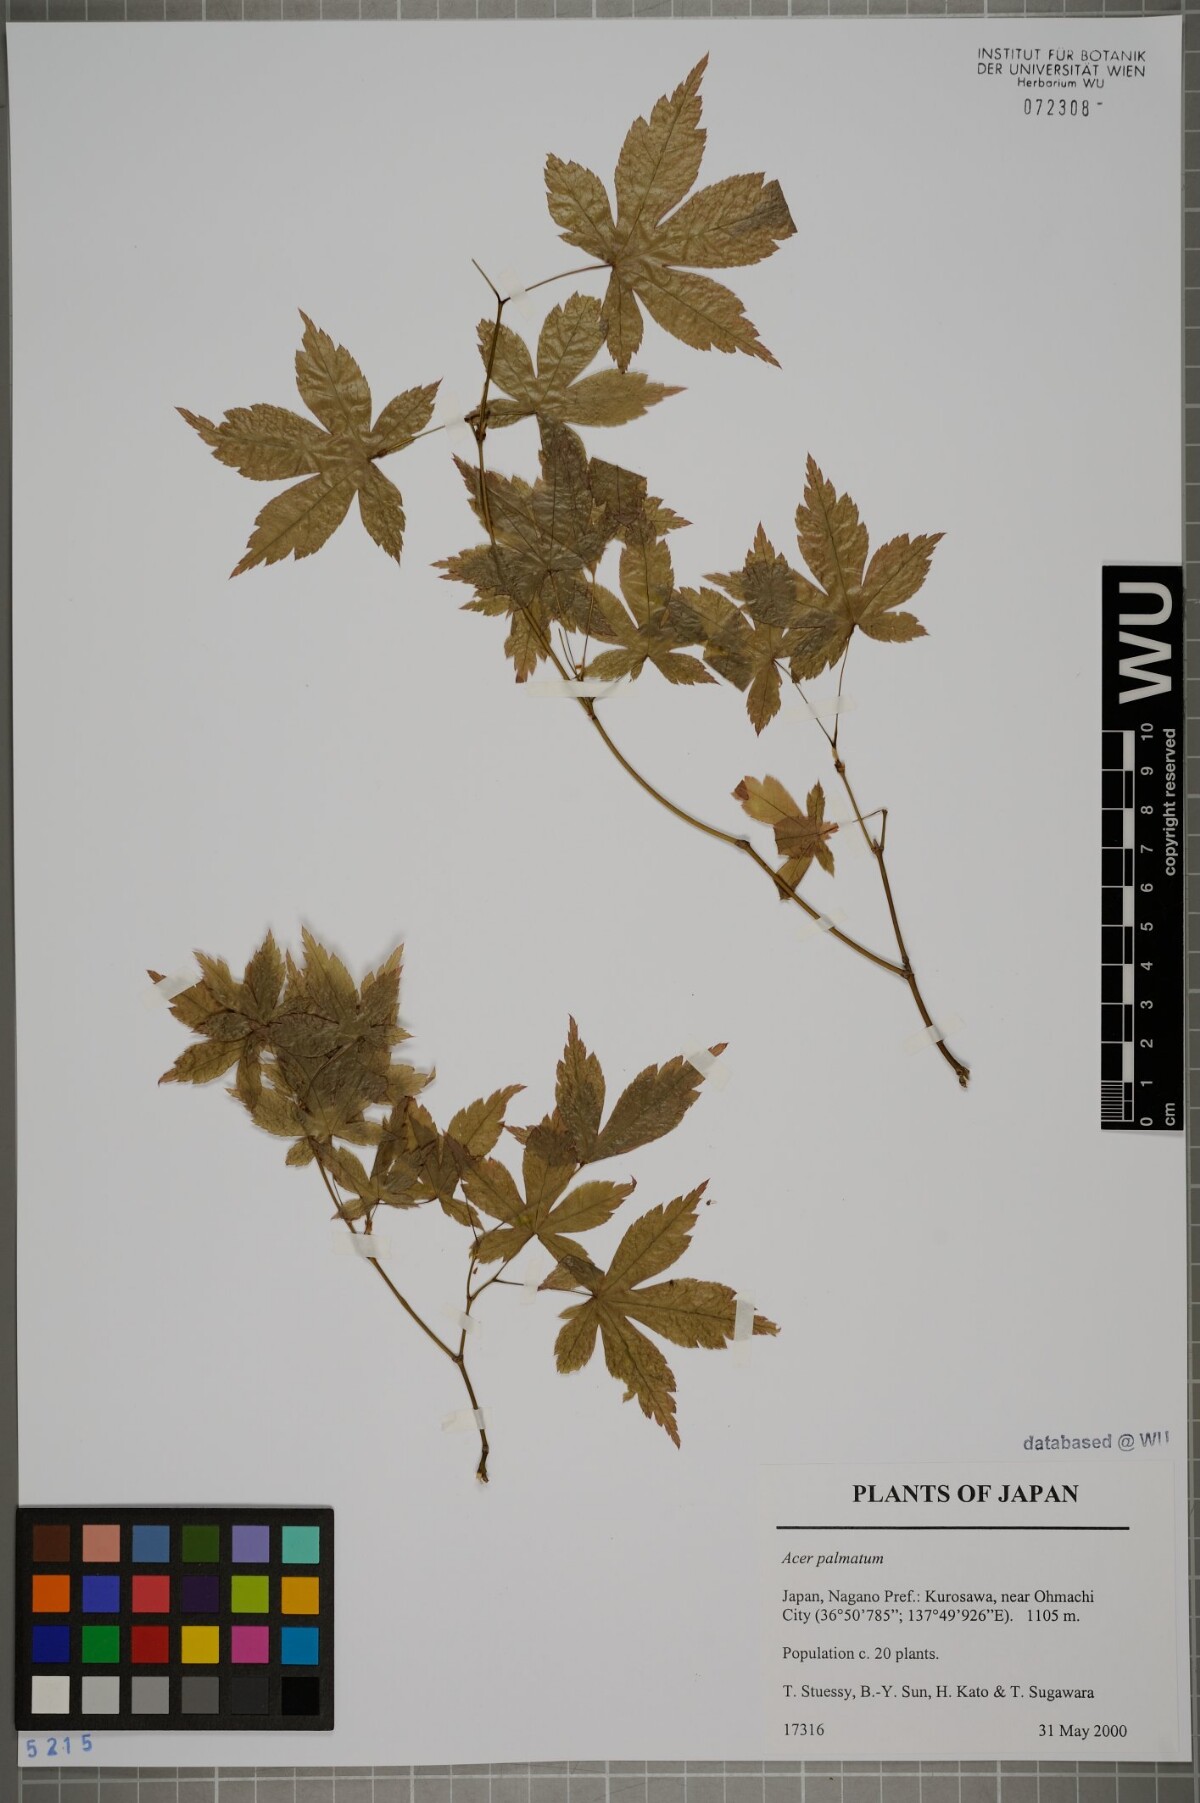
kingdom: Plantae
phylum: Tracheophyta
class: Magnoliopsida
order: Sapindales
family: Sapindaceae
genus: Acer
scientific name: Acer palmatum
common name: Japanese maple
